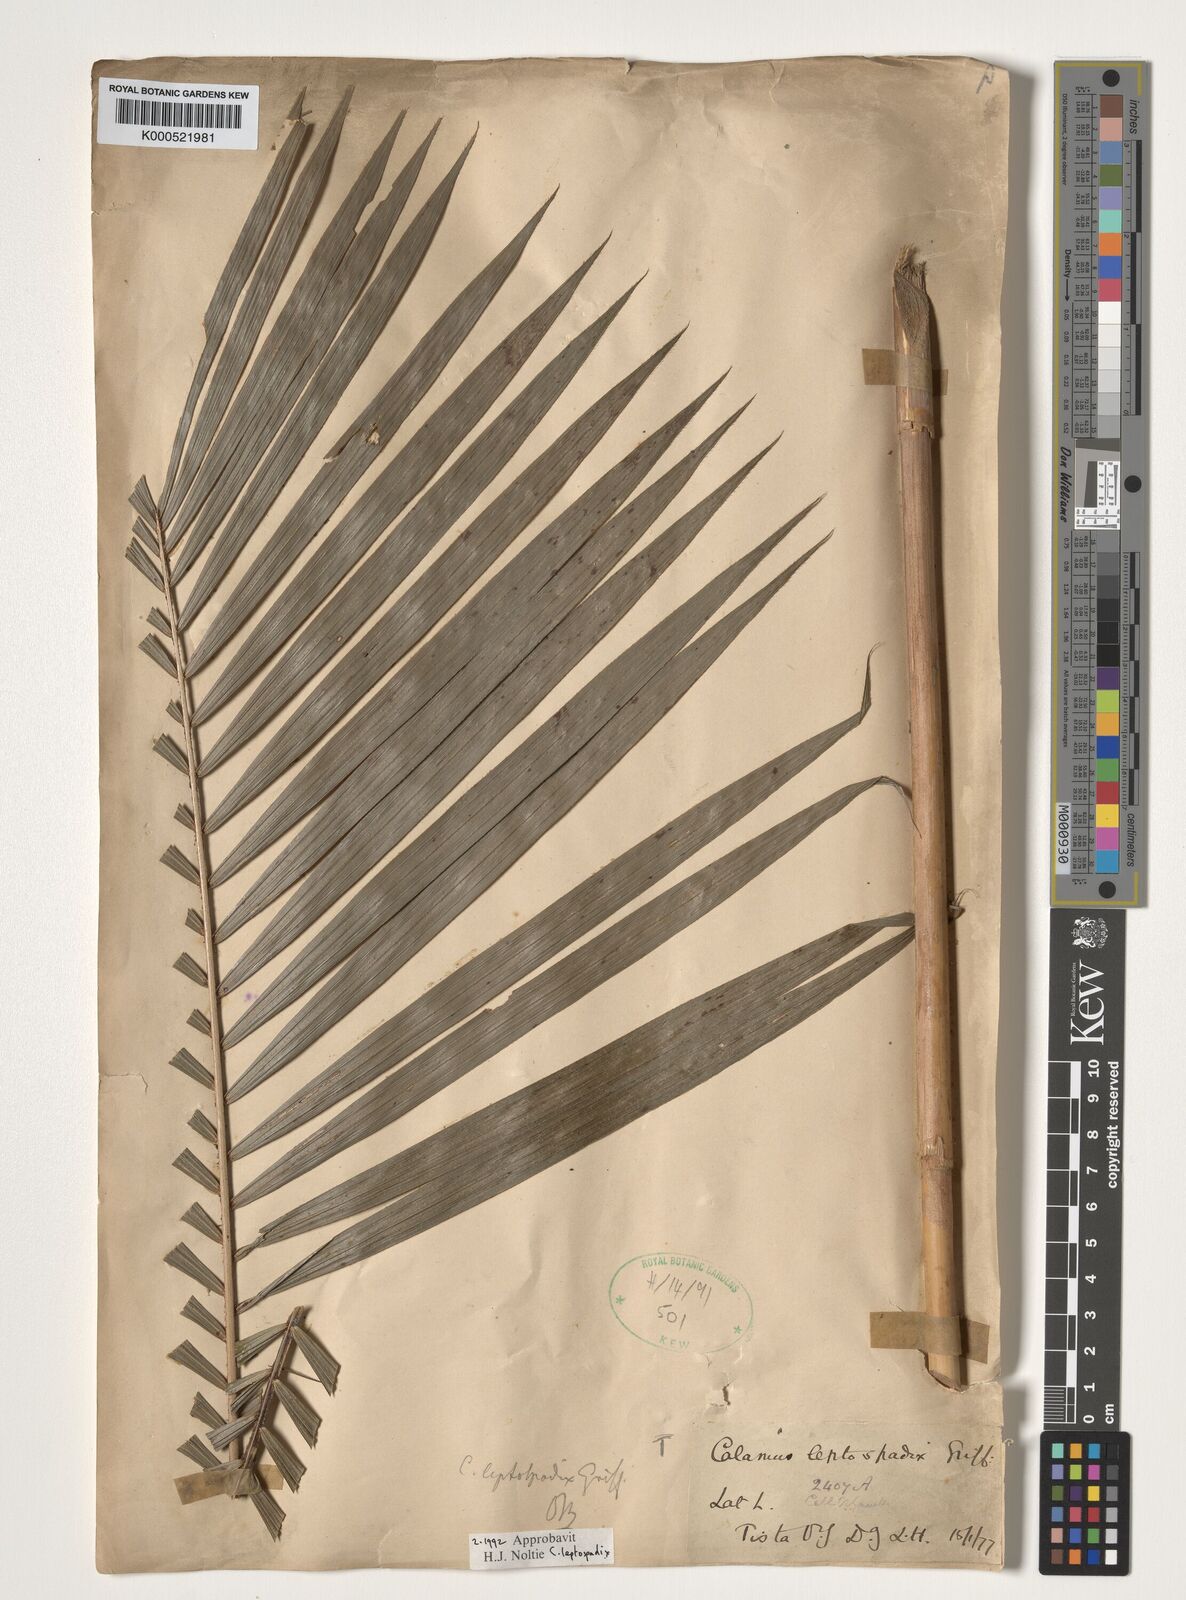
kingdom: Plantae
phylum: Tracheophyta
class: Liliopsida
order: Arecales
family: Arecaceae
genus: Calamus
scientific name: Calamus leptospadix
